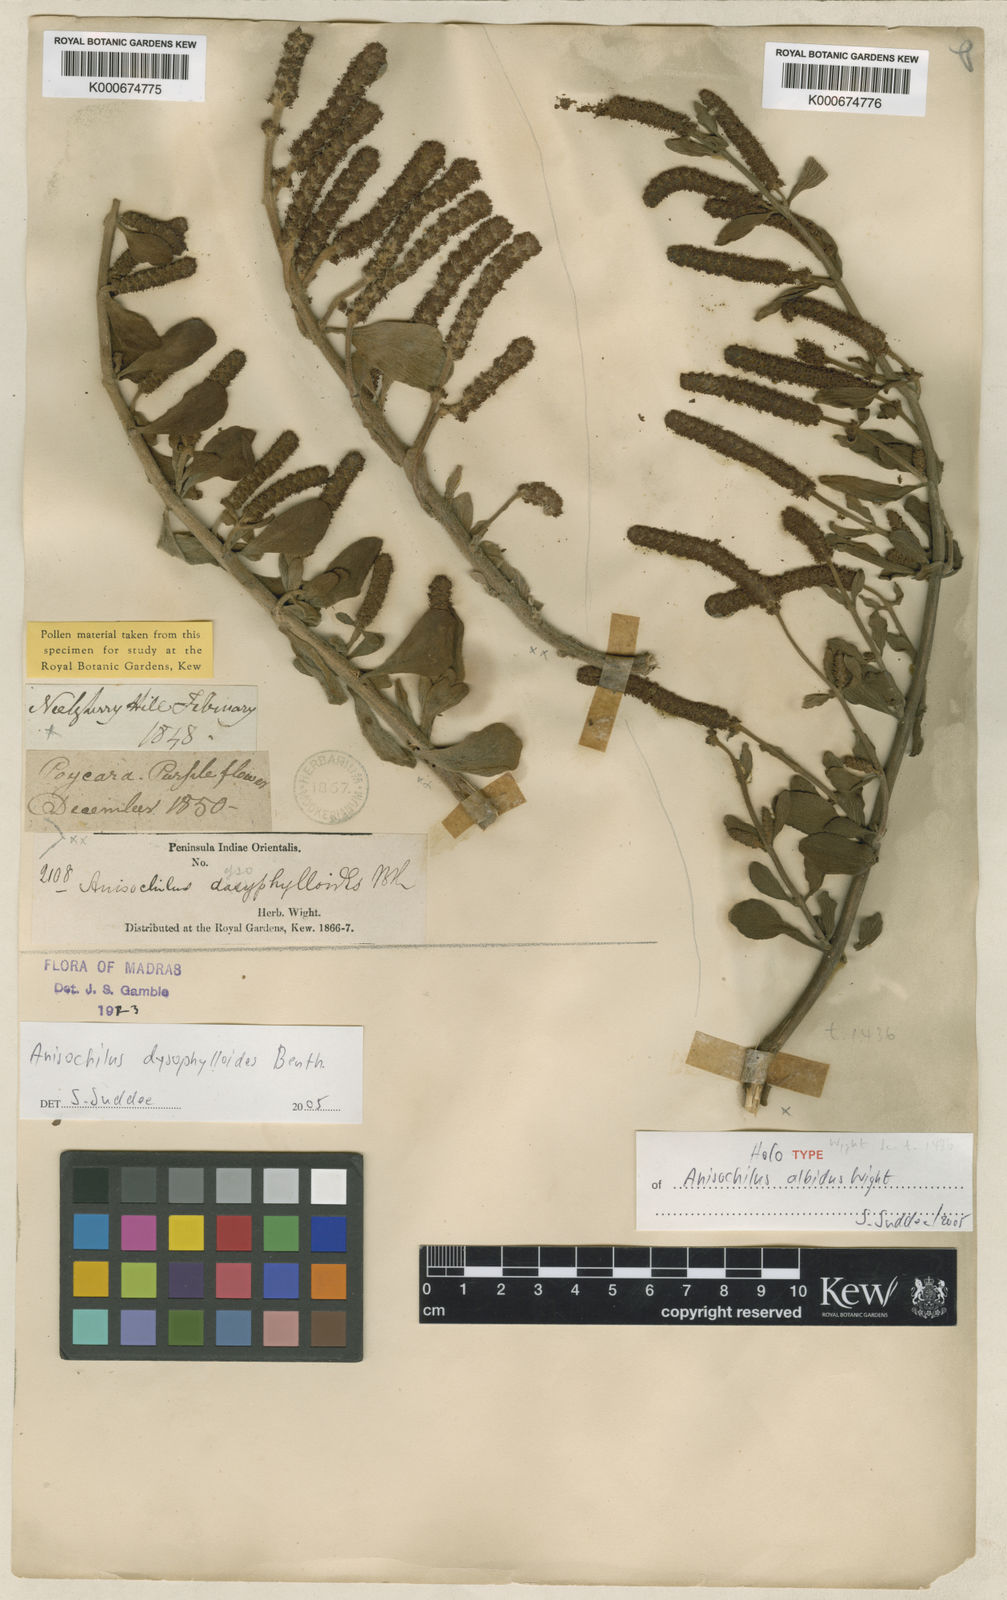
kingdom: Plantae
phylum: Tracheophyta
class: Magnoliopsida
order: Lamiales
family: Lamiaceae
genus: Coleus
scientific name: Coleus dysophylloides
